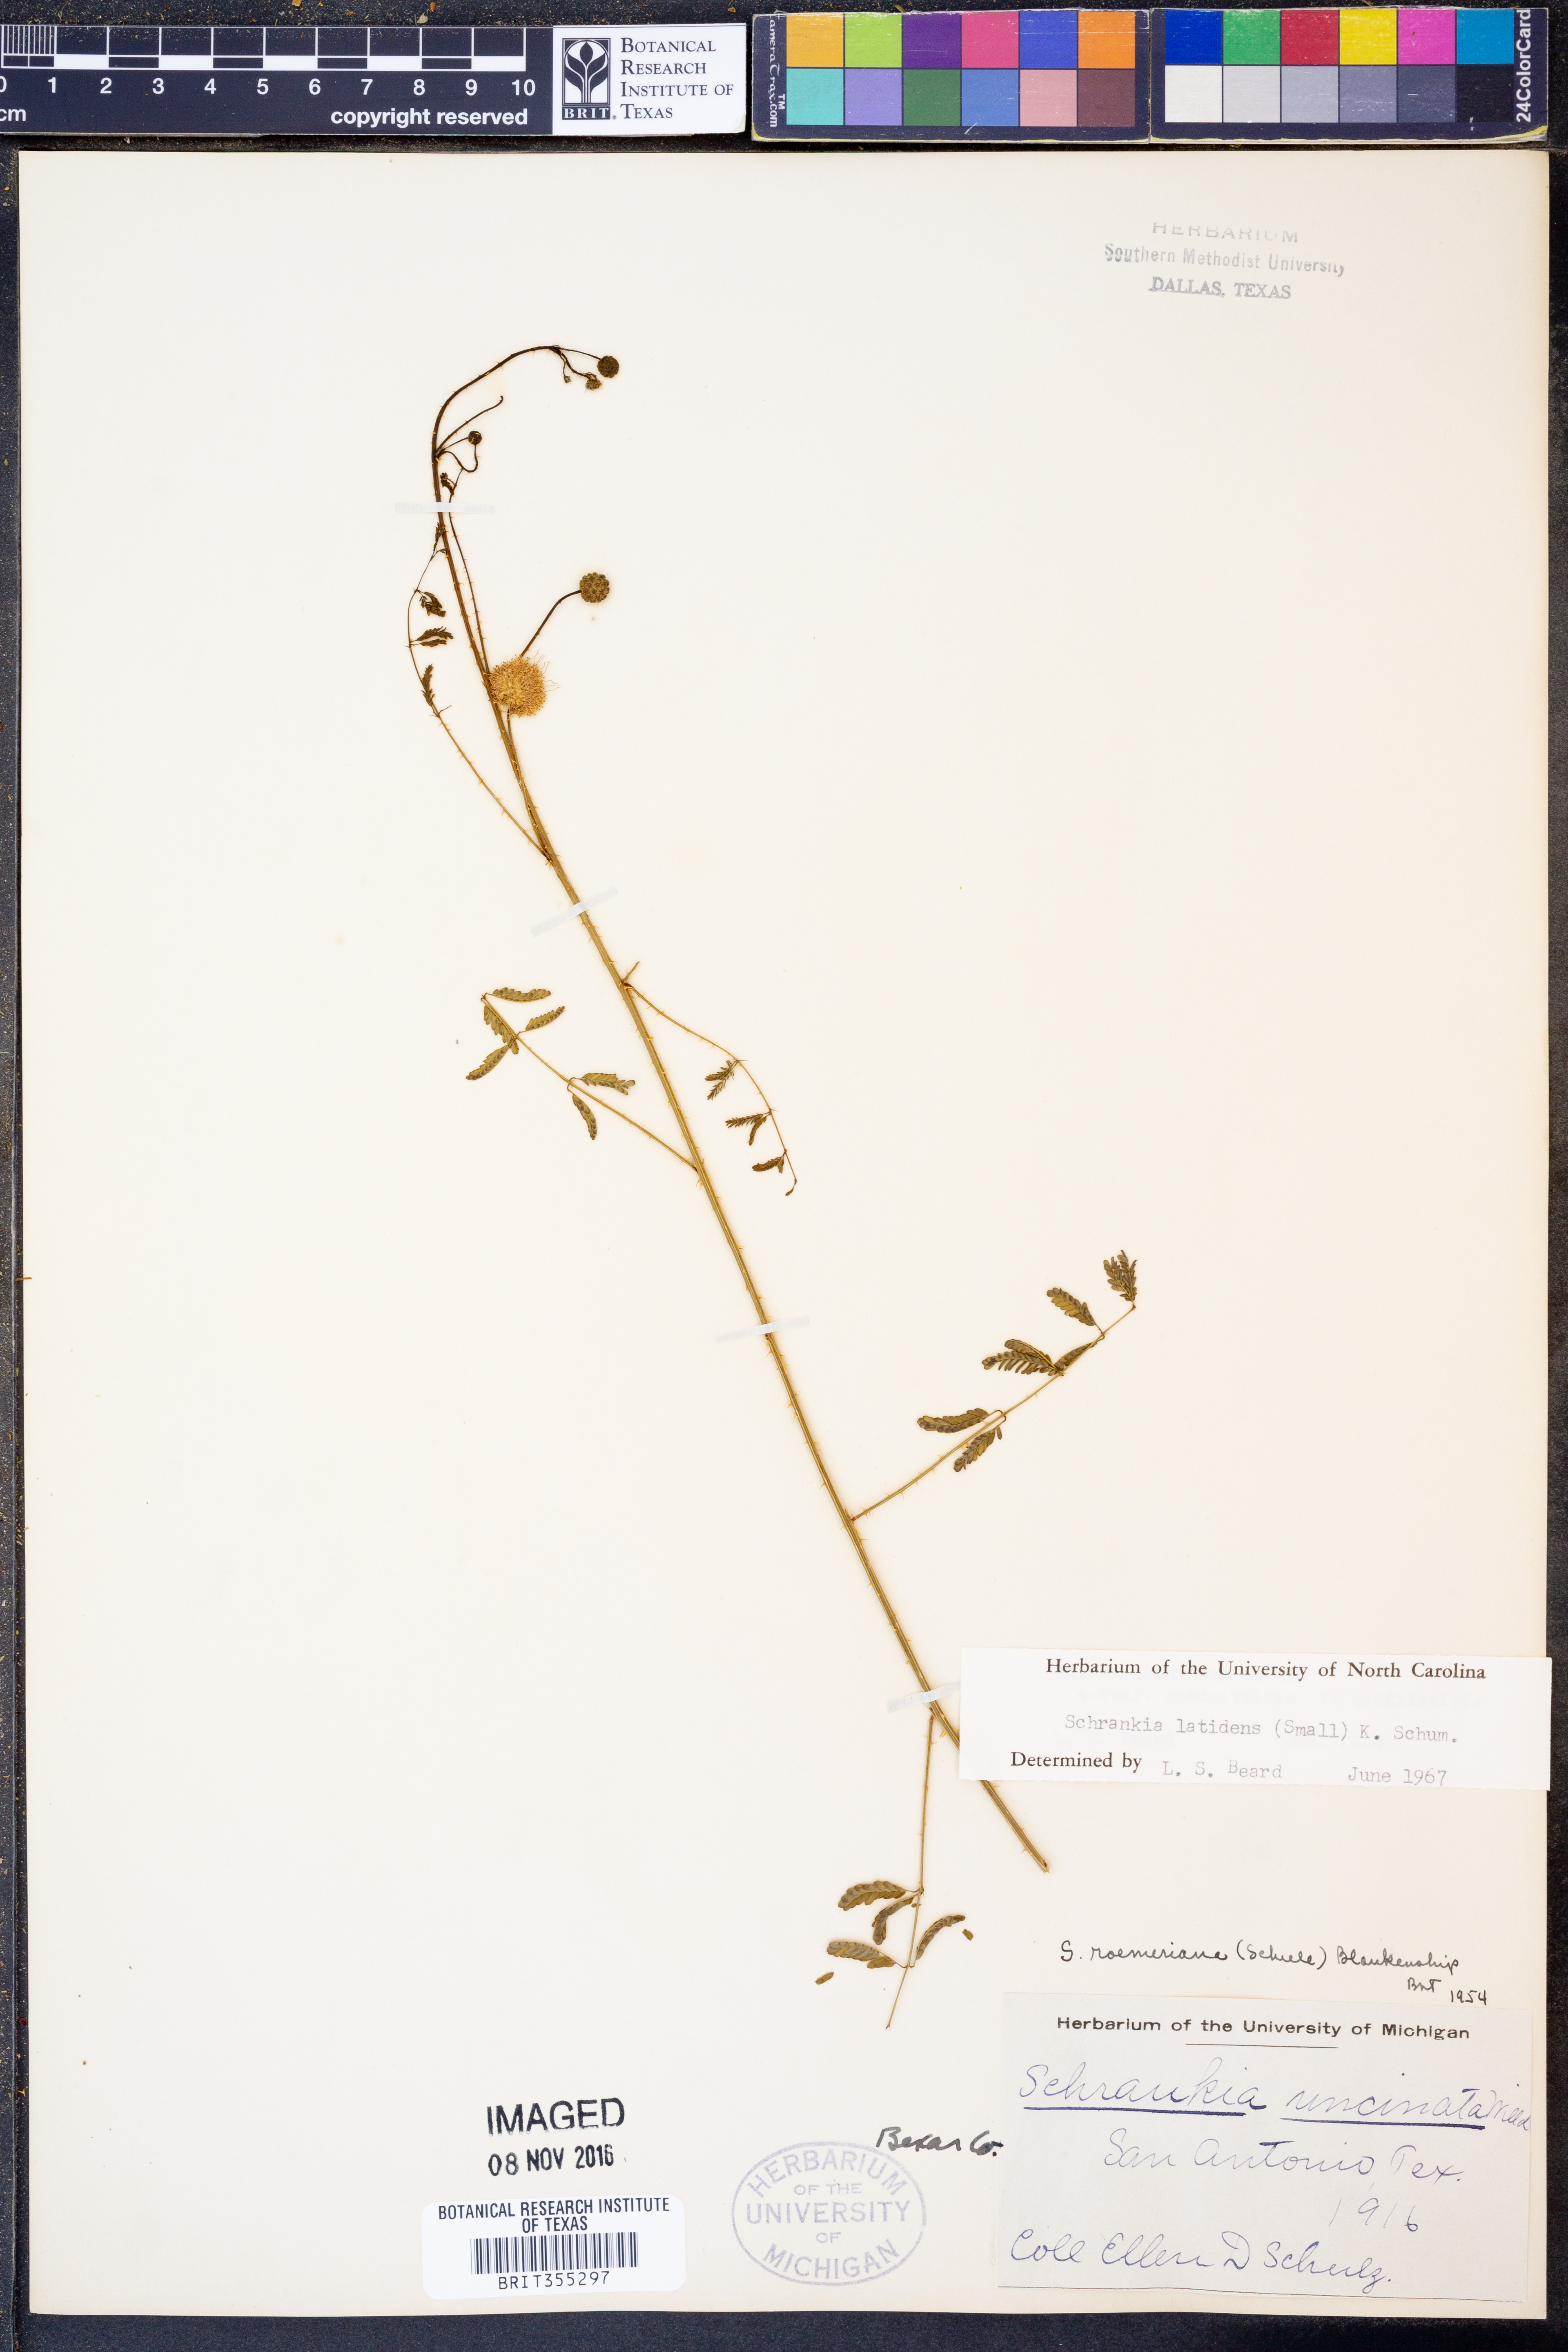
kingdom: Plantae
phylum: Tracheophyta
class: Magnoliopsida
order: Fabales
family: Fabaceae
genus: Mimosa
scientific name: Mimosa quadrivalvis
